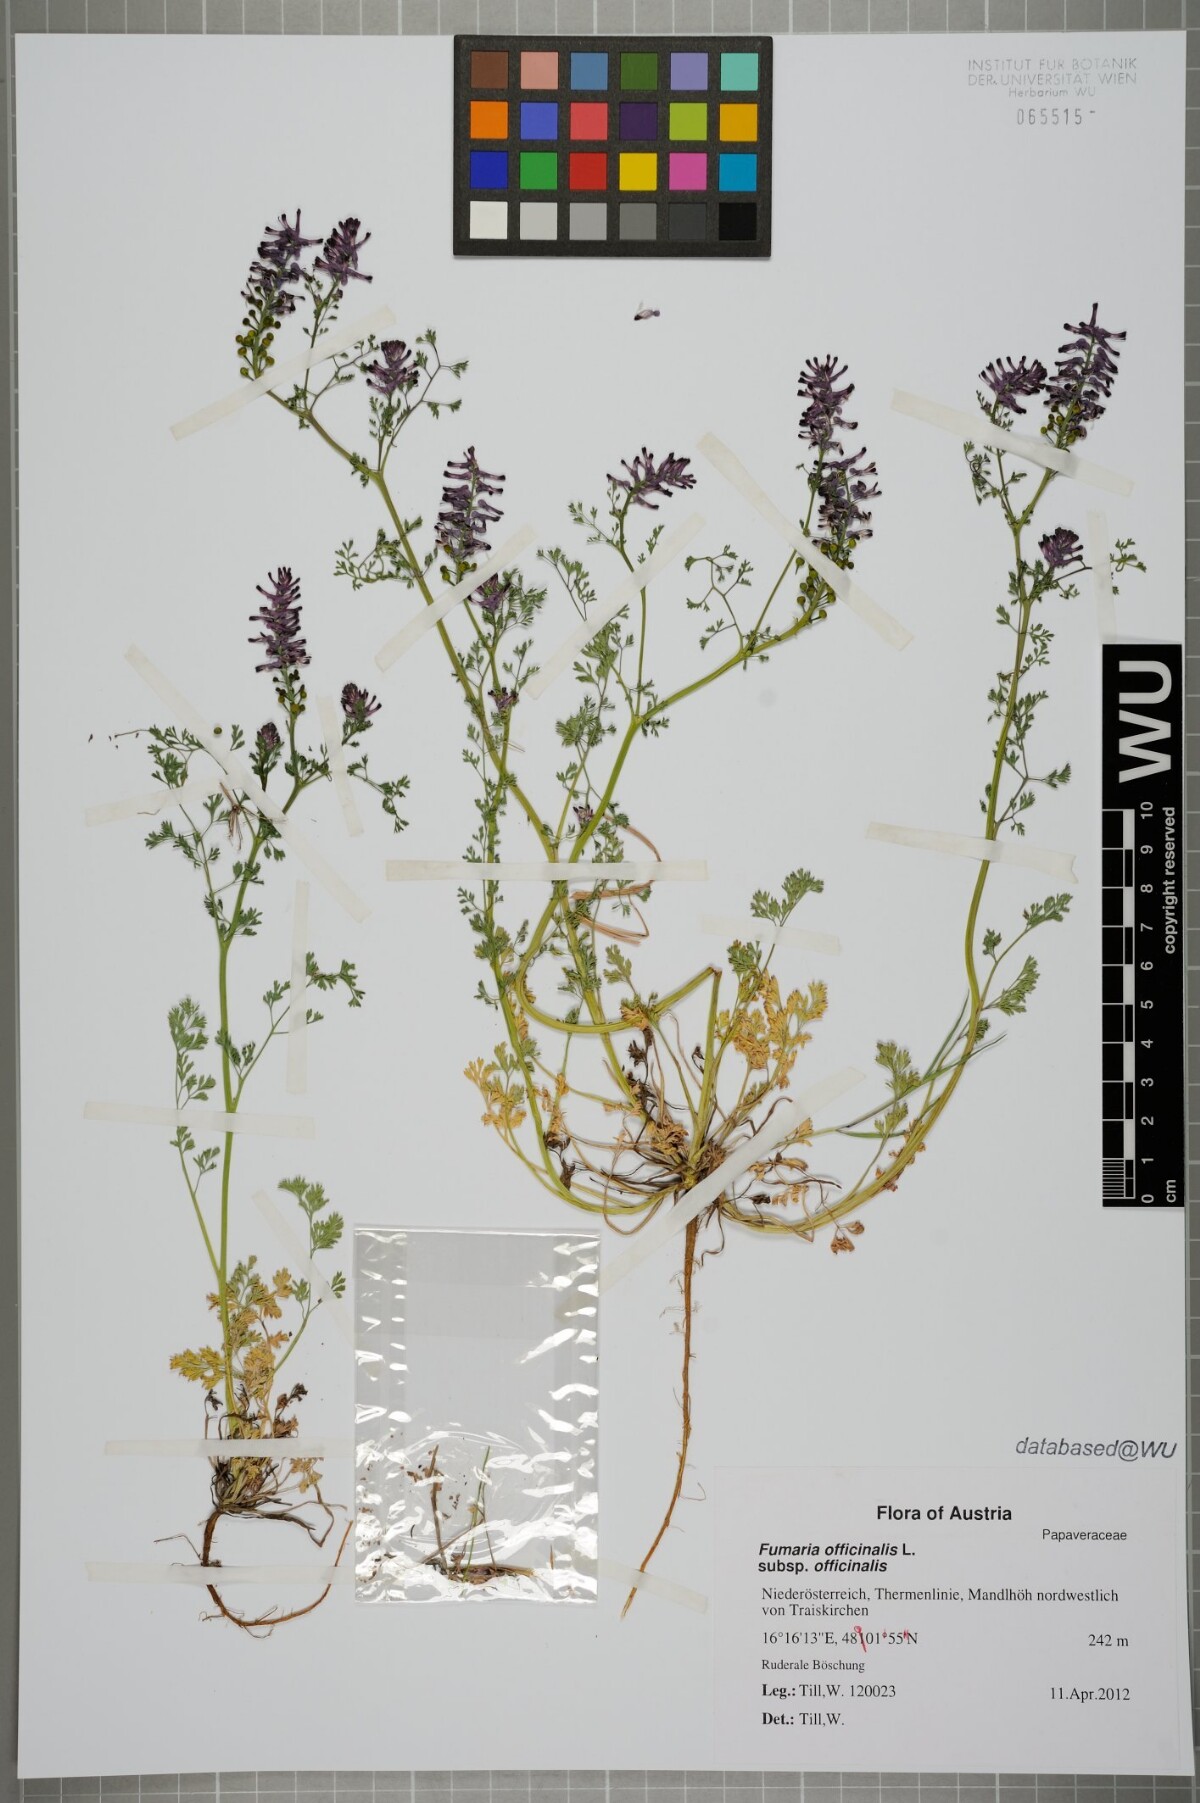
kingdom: Plantae
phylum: Tracheophyta
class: Magnoliopsida
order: Ranunculales
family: Papaveraceae
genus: Fumaria
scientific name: Fumaria officinalis
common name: Common fumitory
